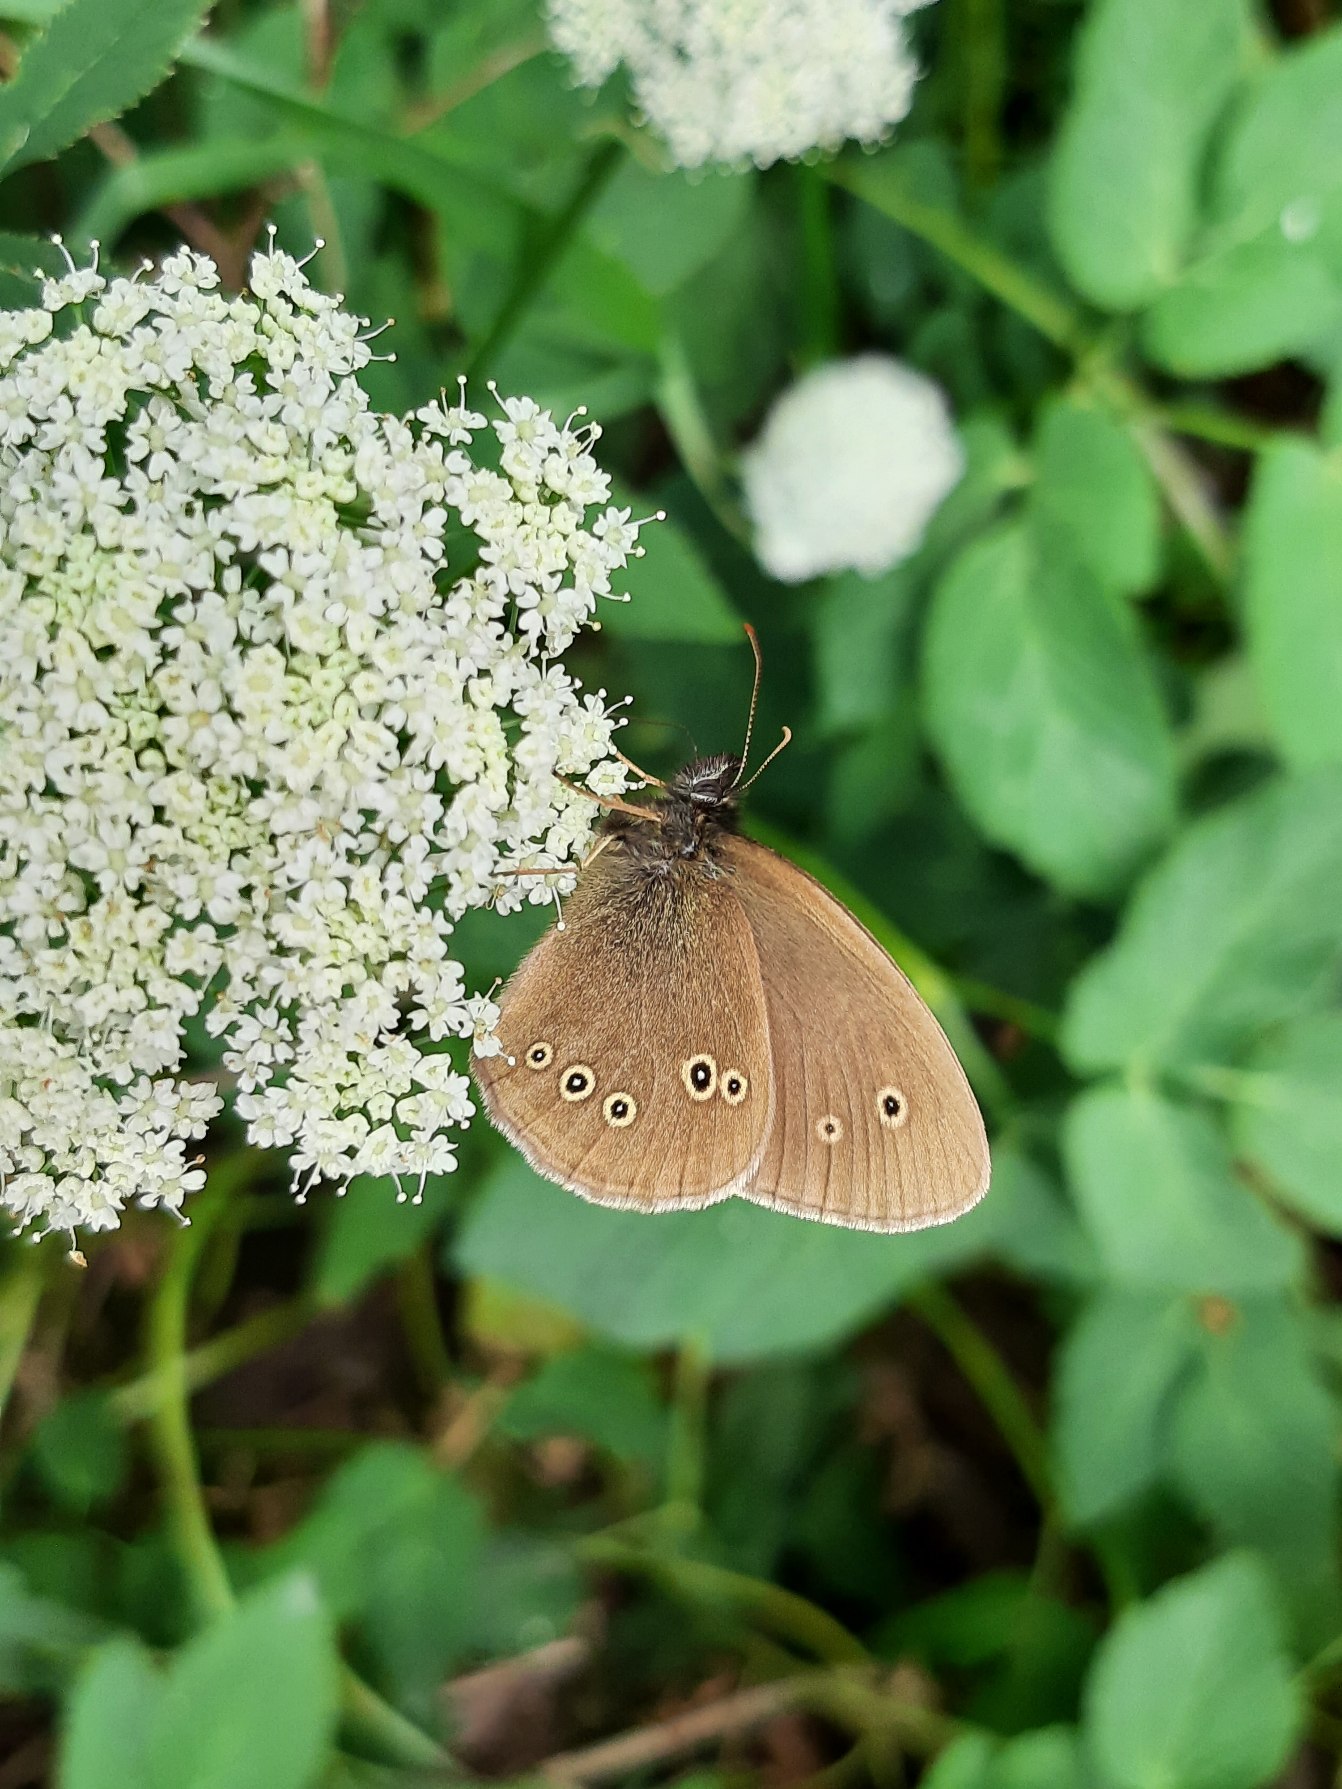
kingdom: Animalia
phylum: Arthropoda
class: Insecta
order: Lepidoptera
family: Nymphalidae
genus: Aphantopus
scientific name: Aphantopus hyperantus
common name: Engrandøje
